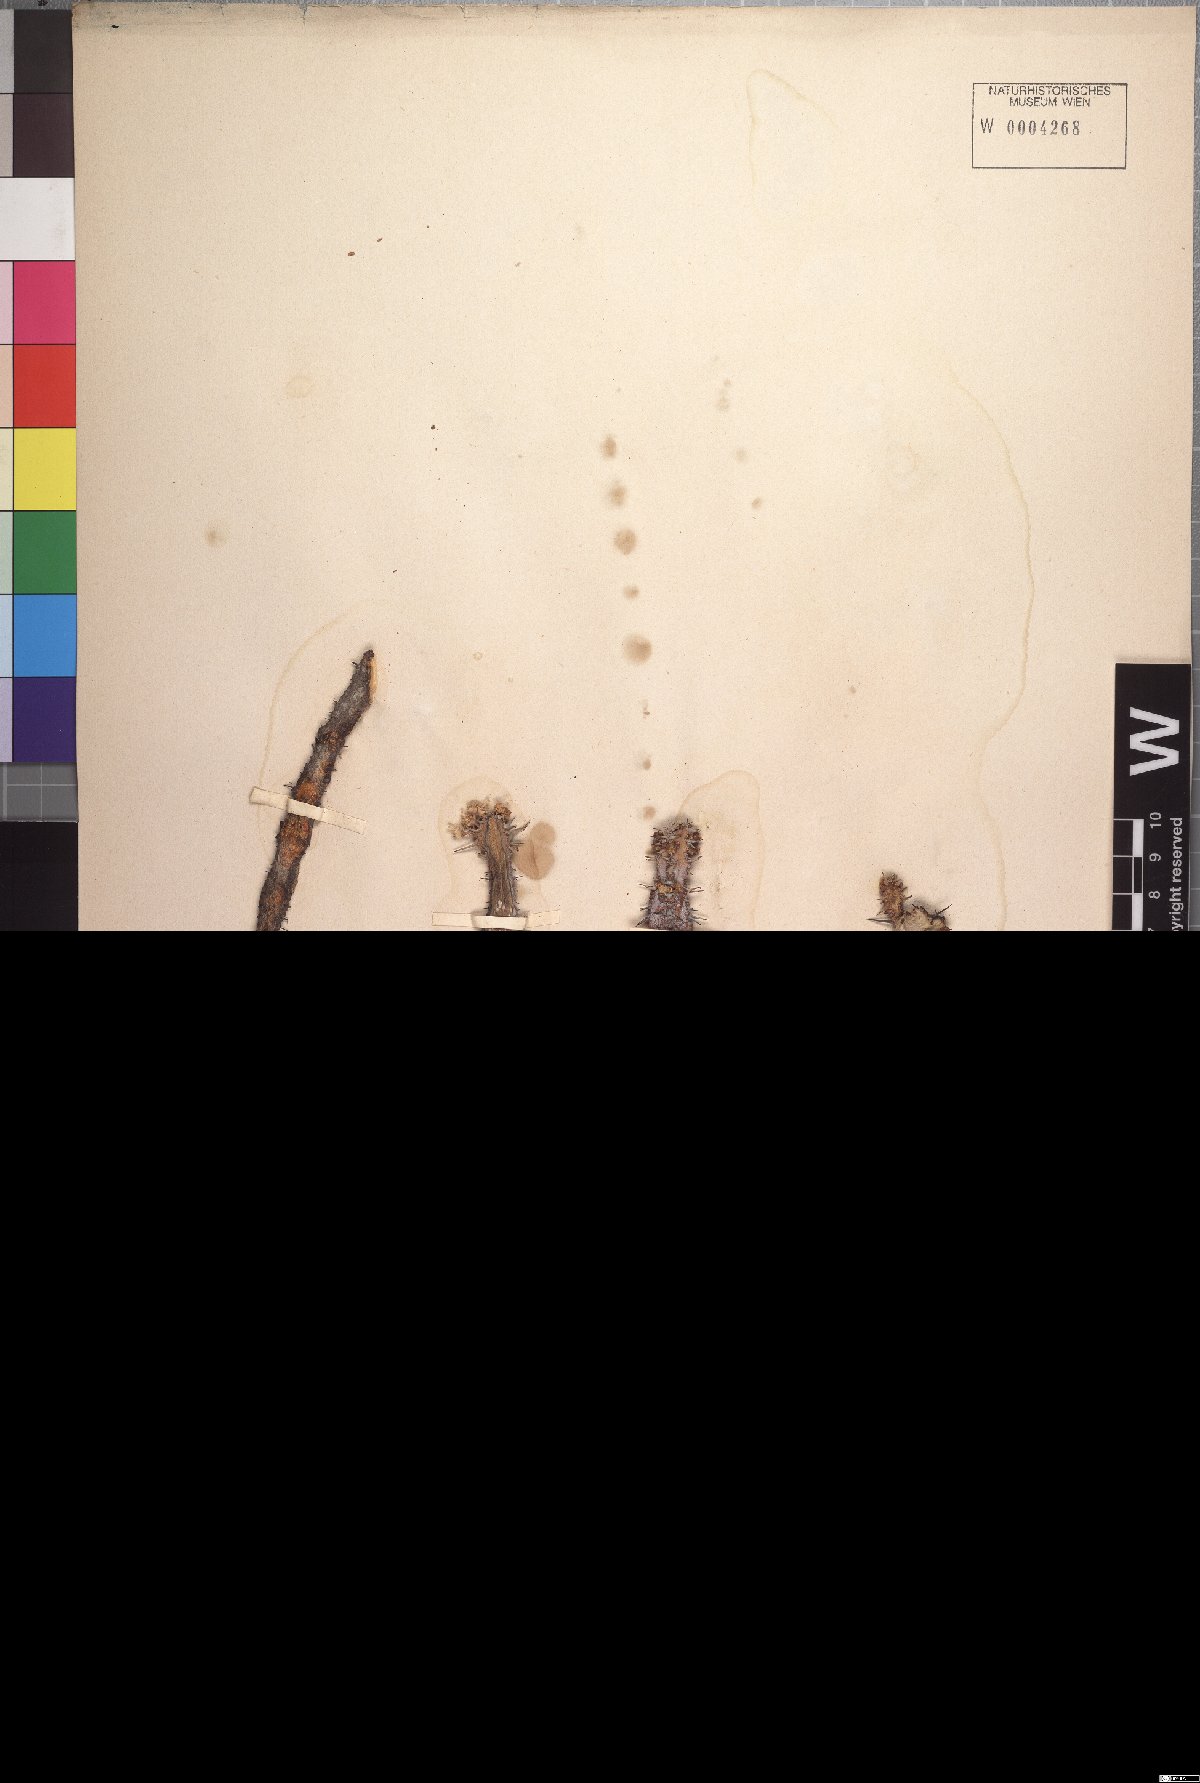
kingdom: Plantae
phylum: Tracheophyta
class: Magnoliopsida
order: Malpighiales
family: Euphorbiaceae
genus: Euphorbia
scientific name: Euphorbia polyacantha
